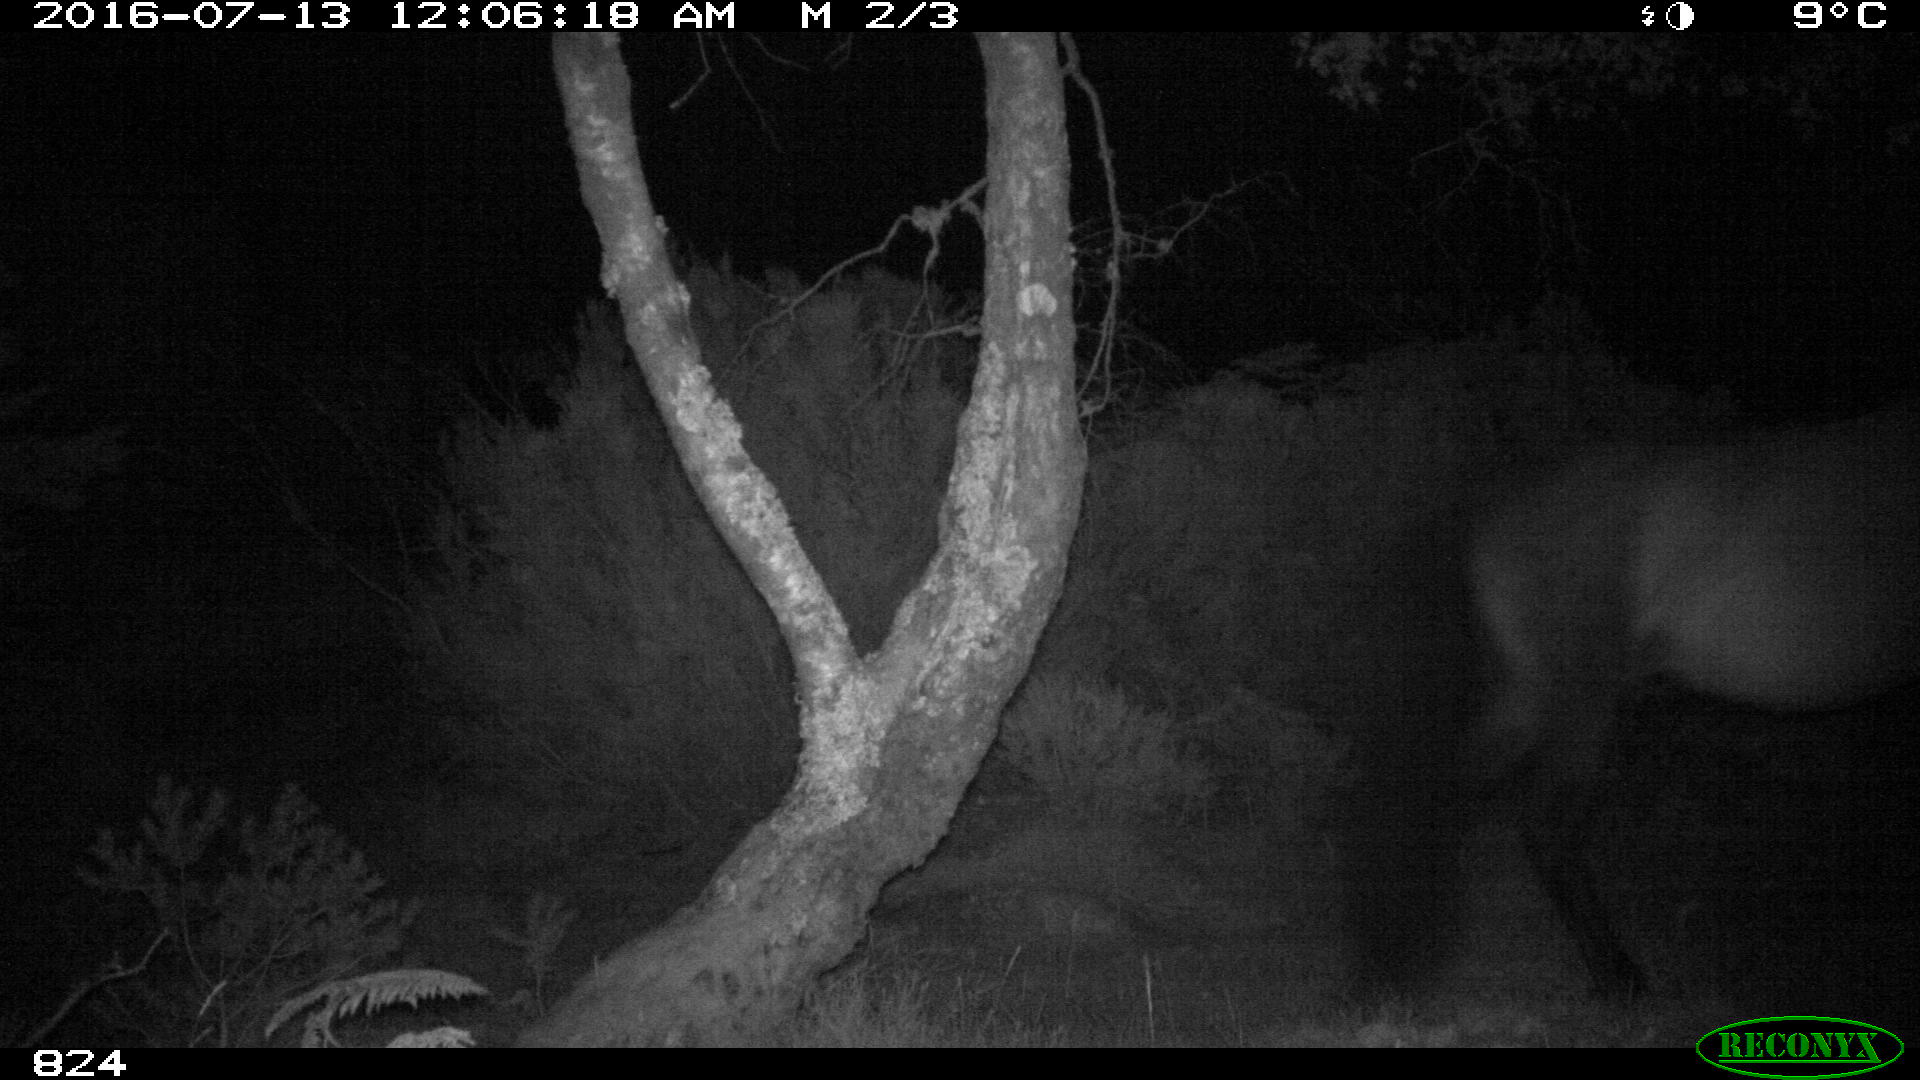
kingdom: Animalia
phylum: Chordata
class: Mammalia
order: Perissodactyla
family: Equidae
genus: Equus
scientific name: Equus caballus
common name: Horse
